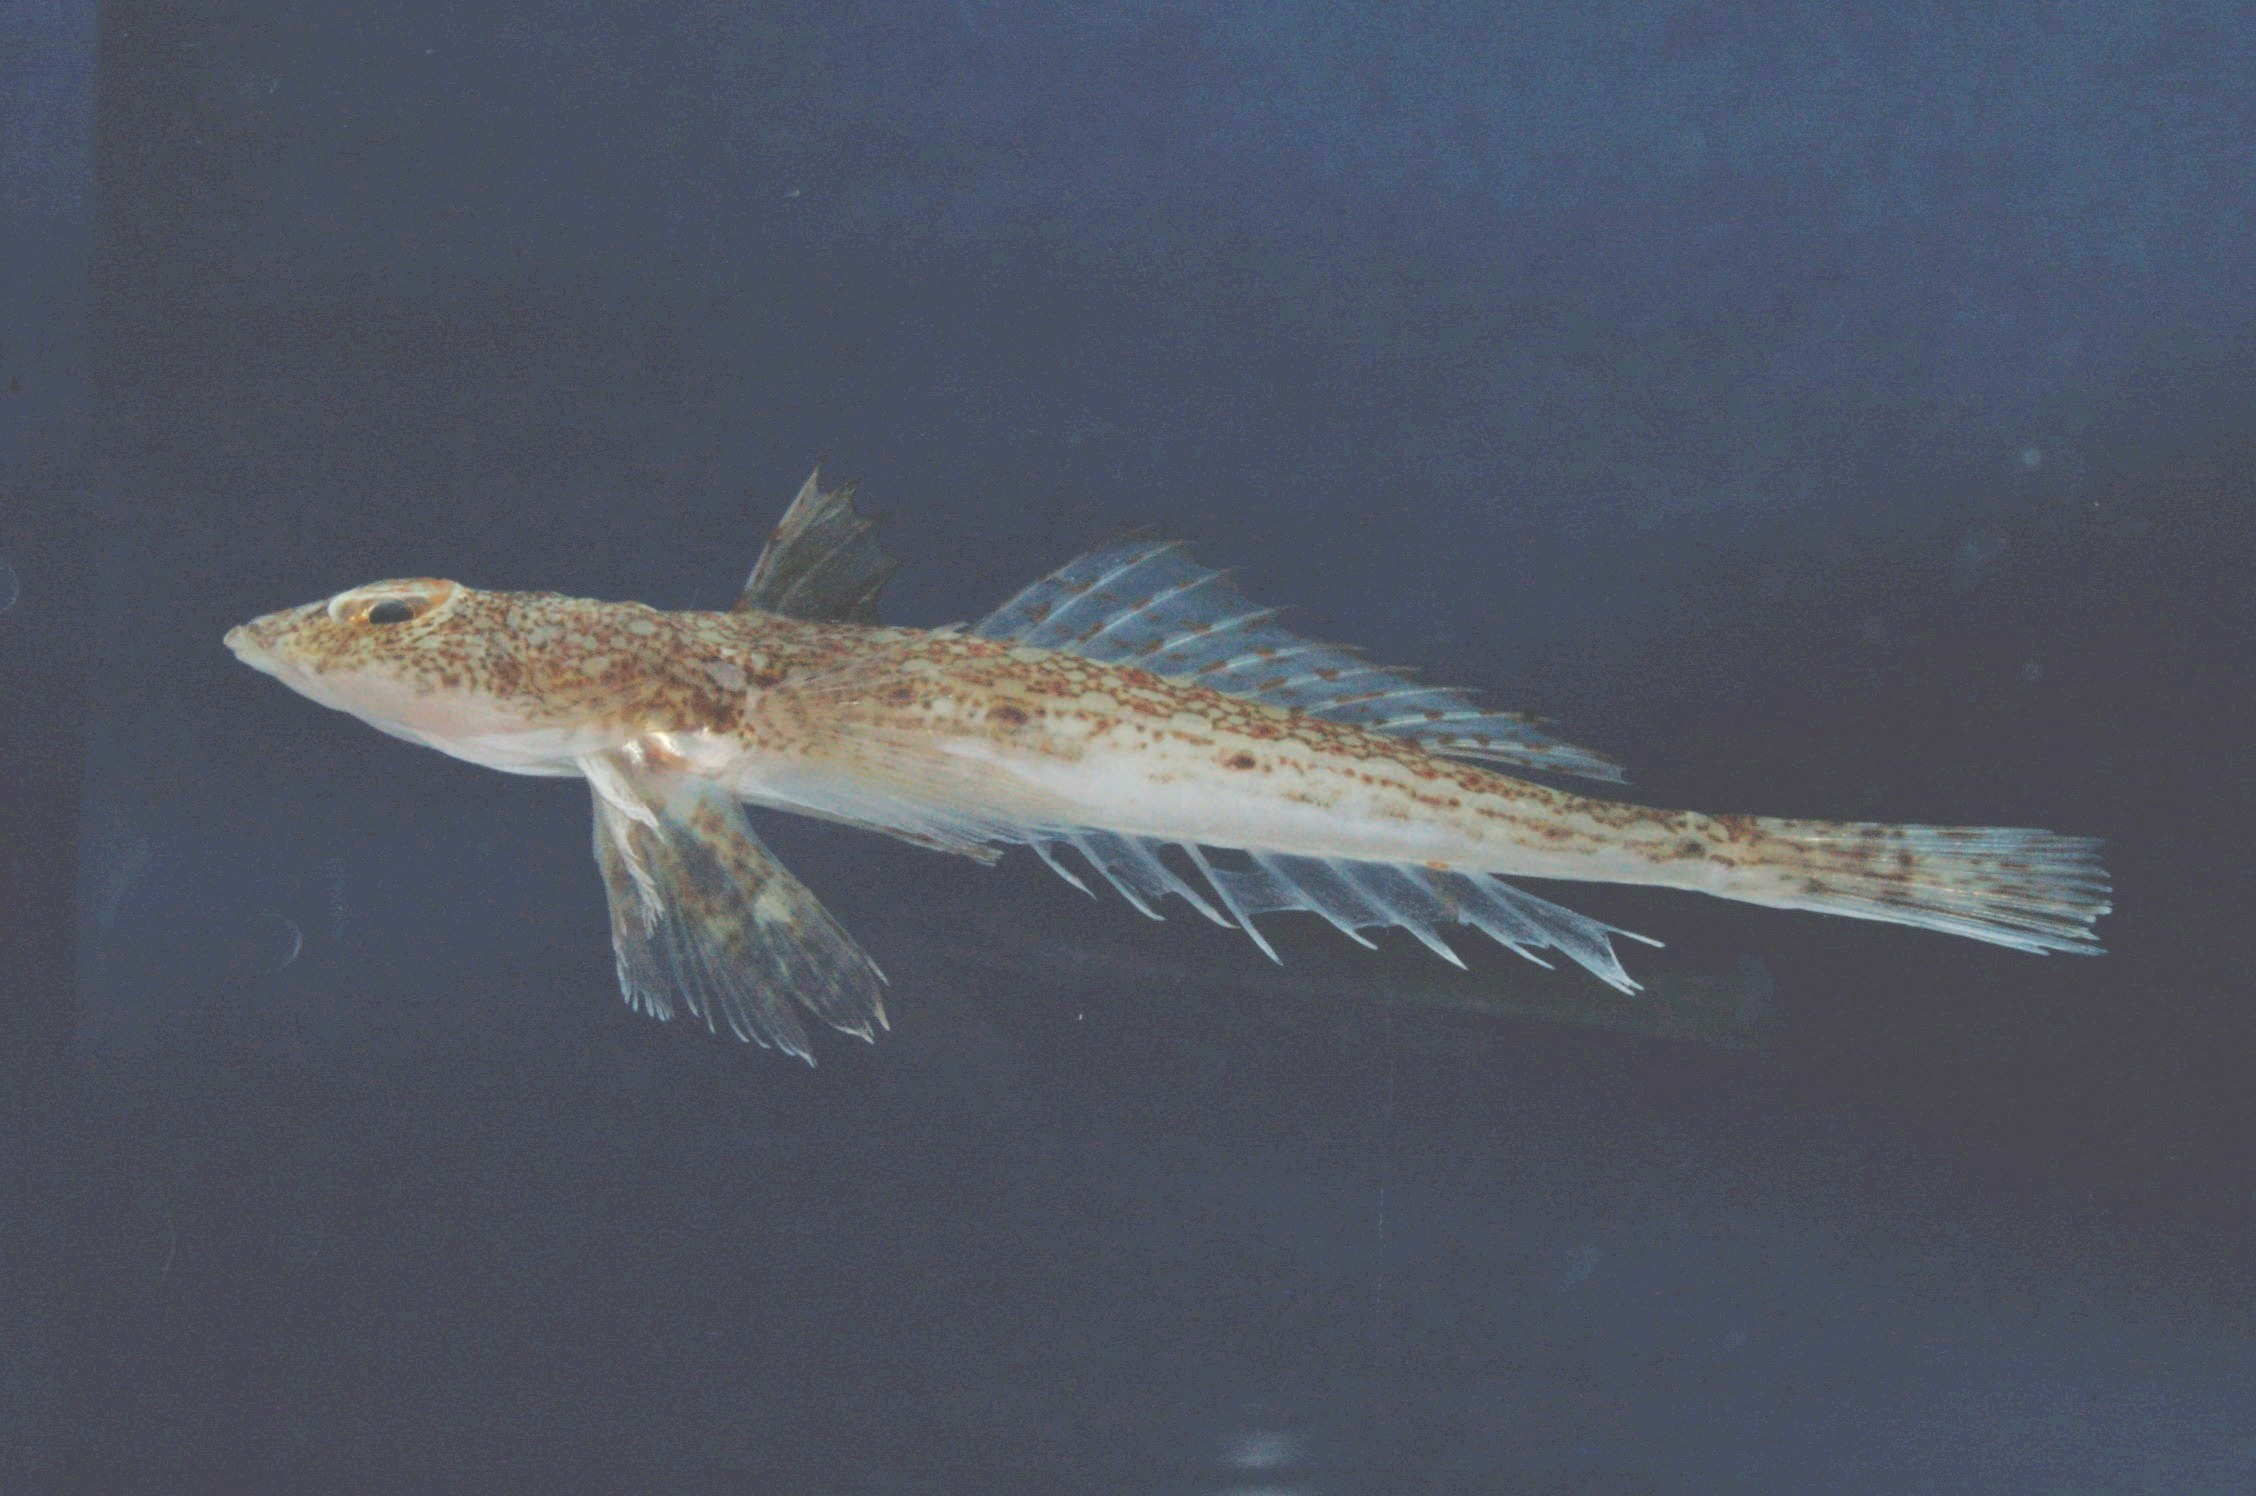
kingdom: Animalia
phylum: Chordata
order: Perciformes
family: Callionymidae
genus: Callionymus
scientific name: Callionymus marleyi
